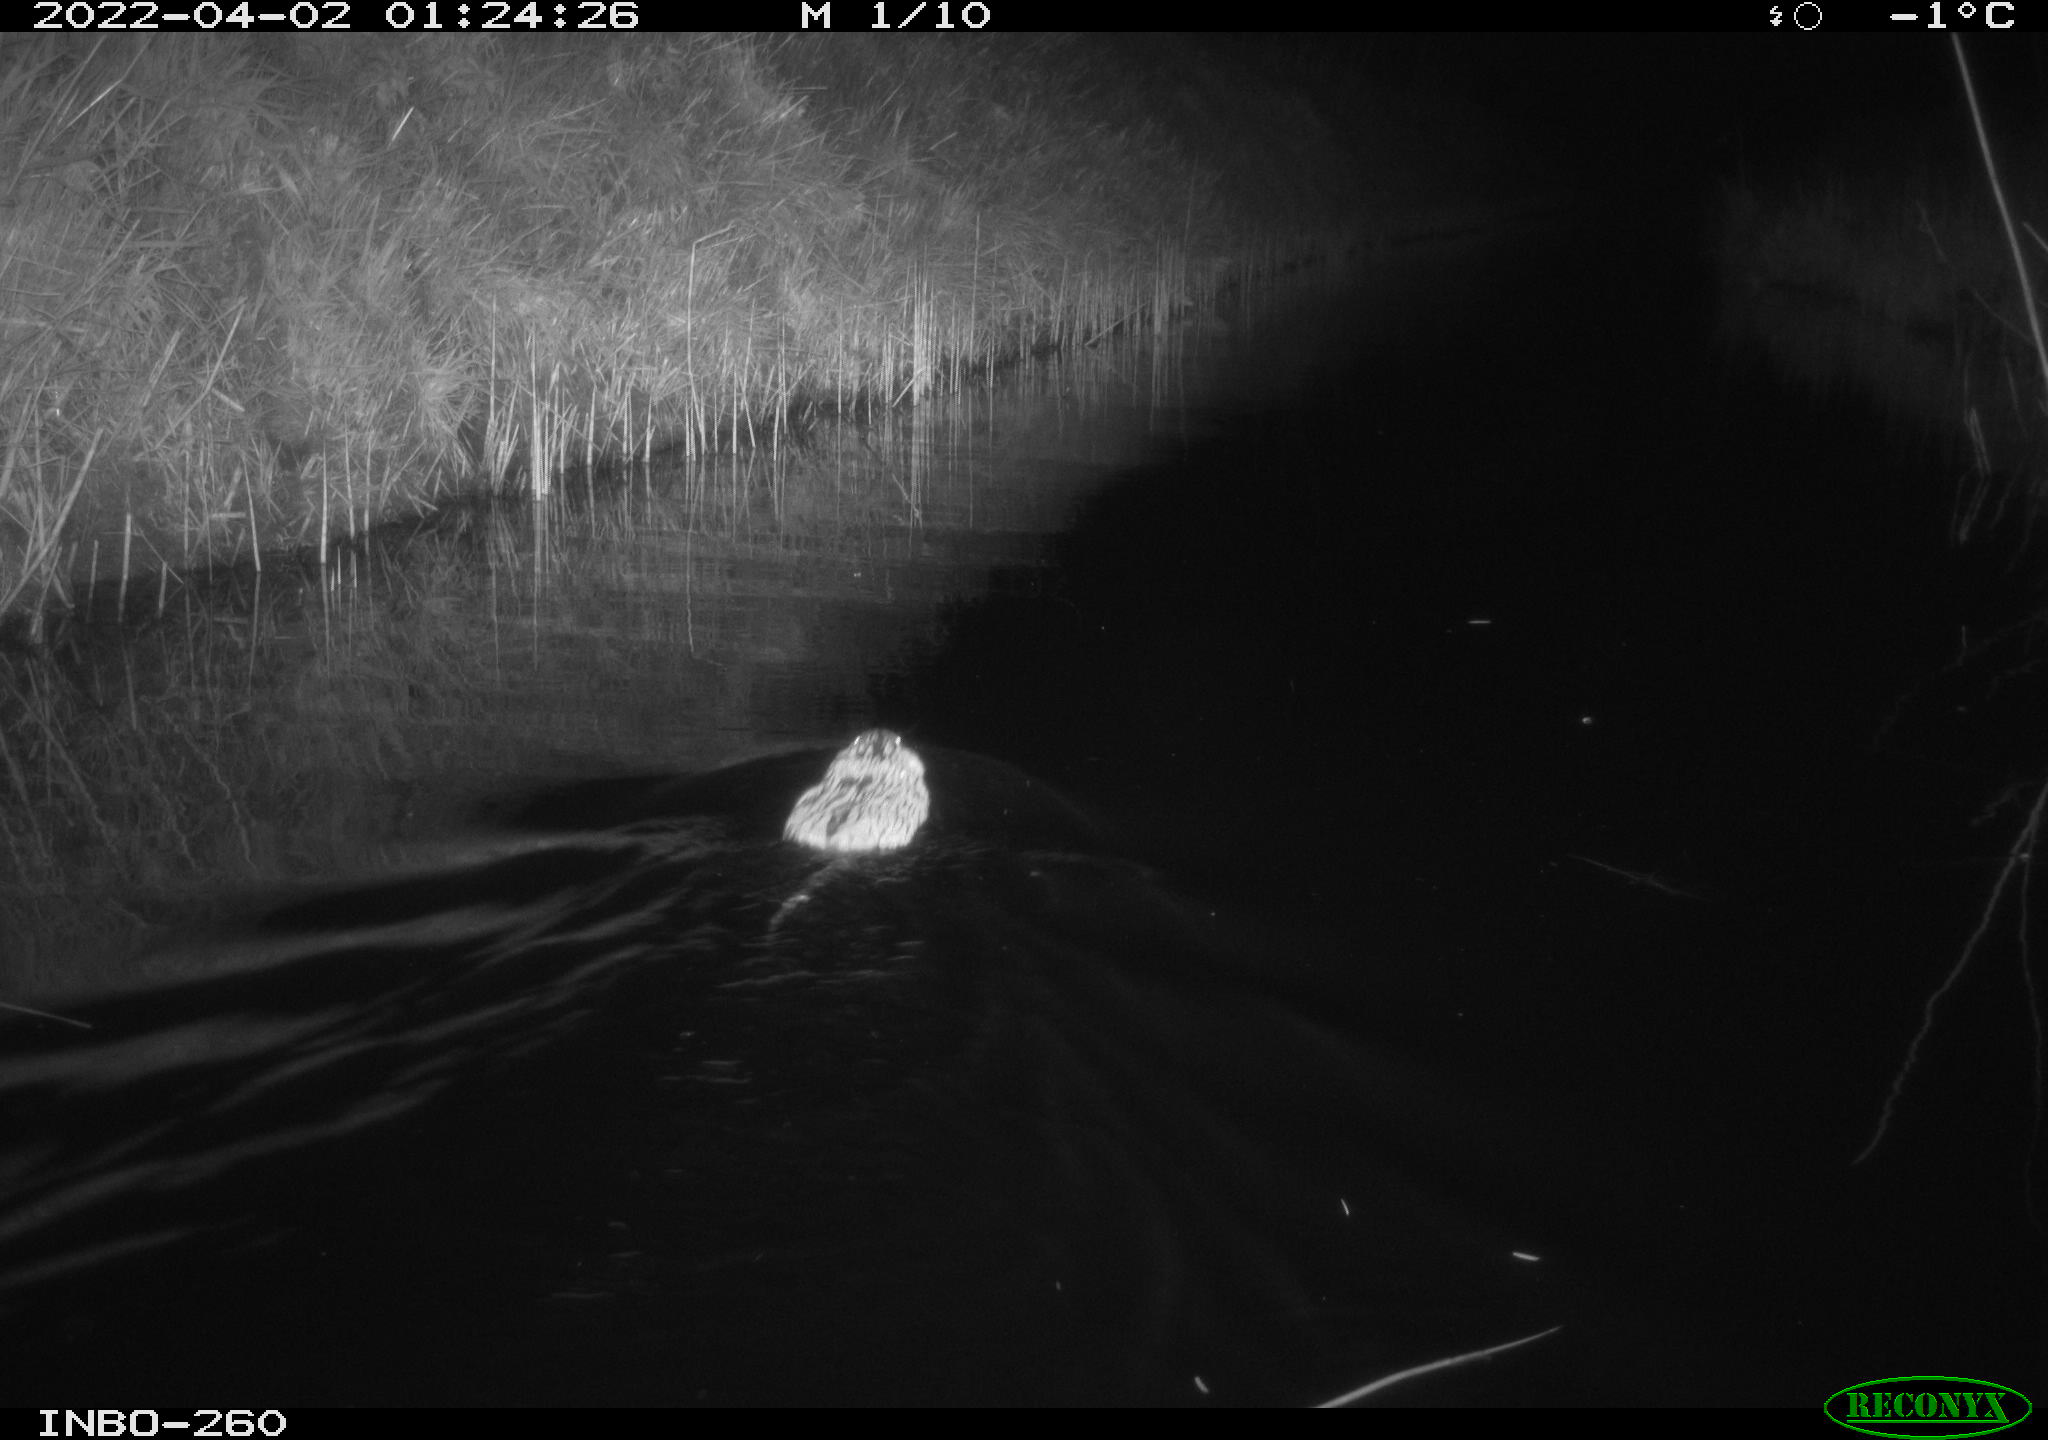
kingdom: Animalia
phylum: Chordata
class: Mammalia
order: Rodentia
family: Cricetidae
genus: Ondatra
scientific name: Ondatra zibethicus
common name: Muskrat
